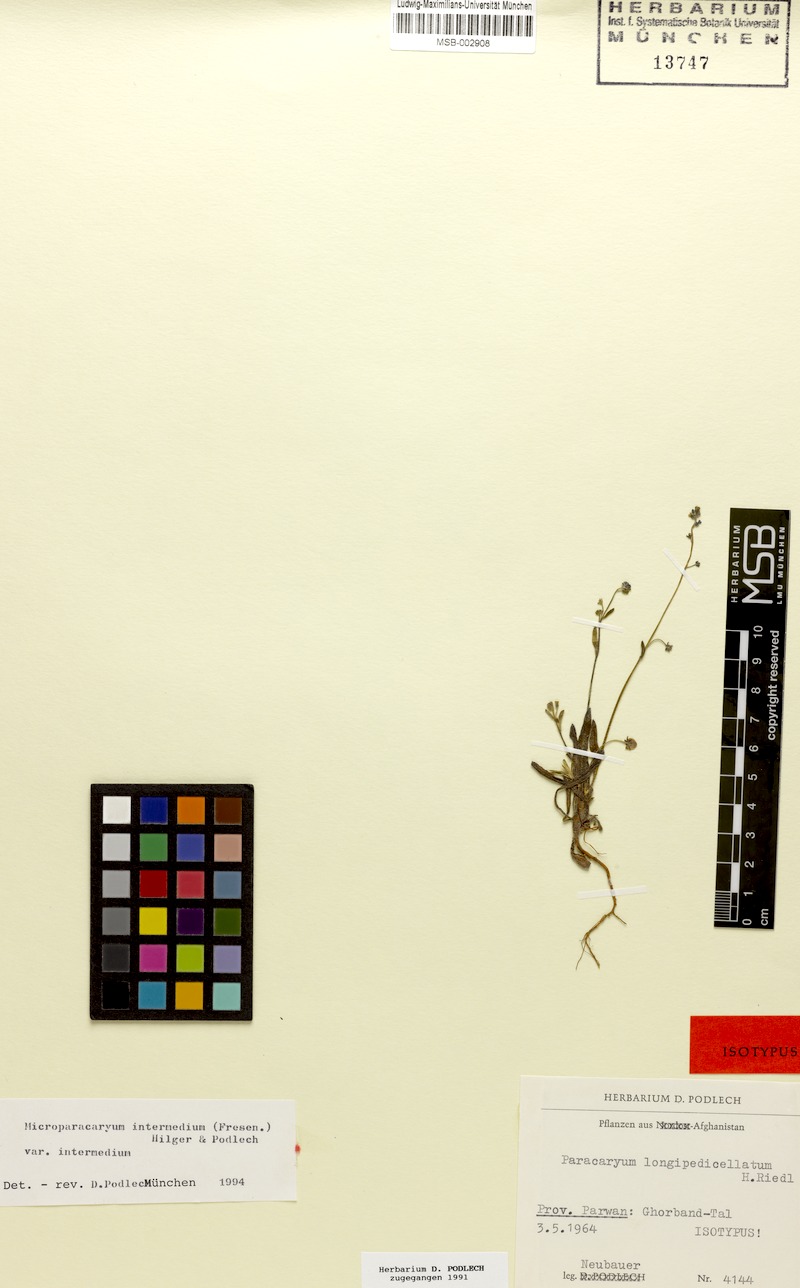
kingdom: Plantae
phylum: Tracheophyta
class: Magnoliopsida
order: Boraginales
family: Boraginaceae
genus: Microparacaryum
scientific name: Microparacaryum intermedium
